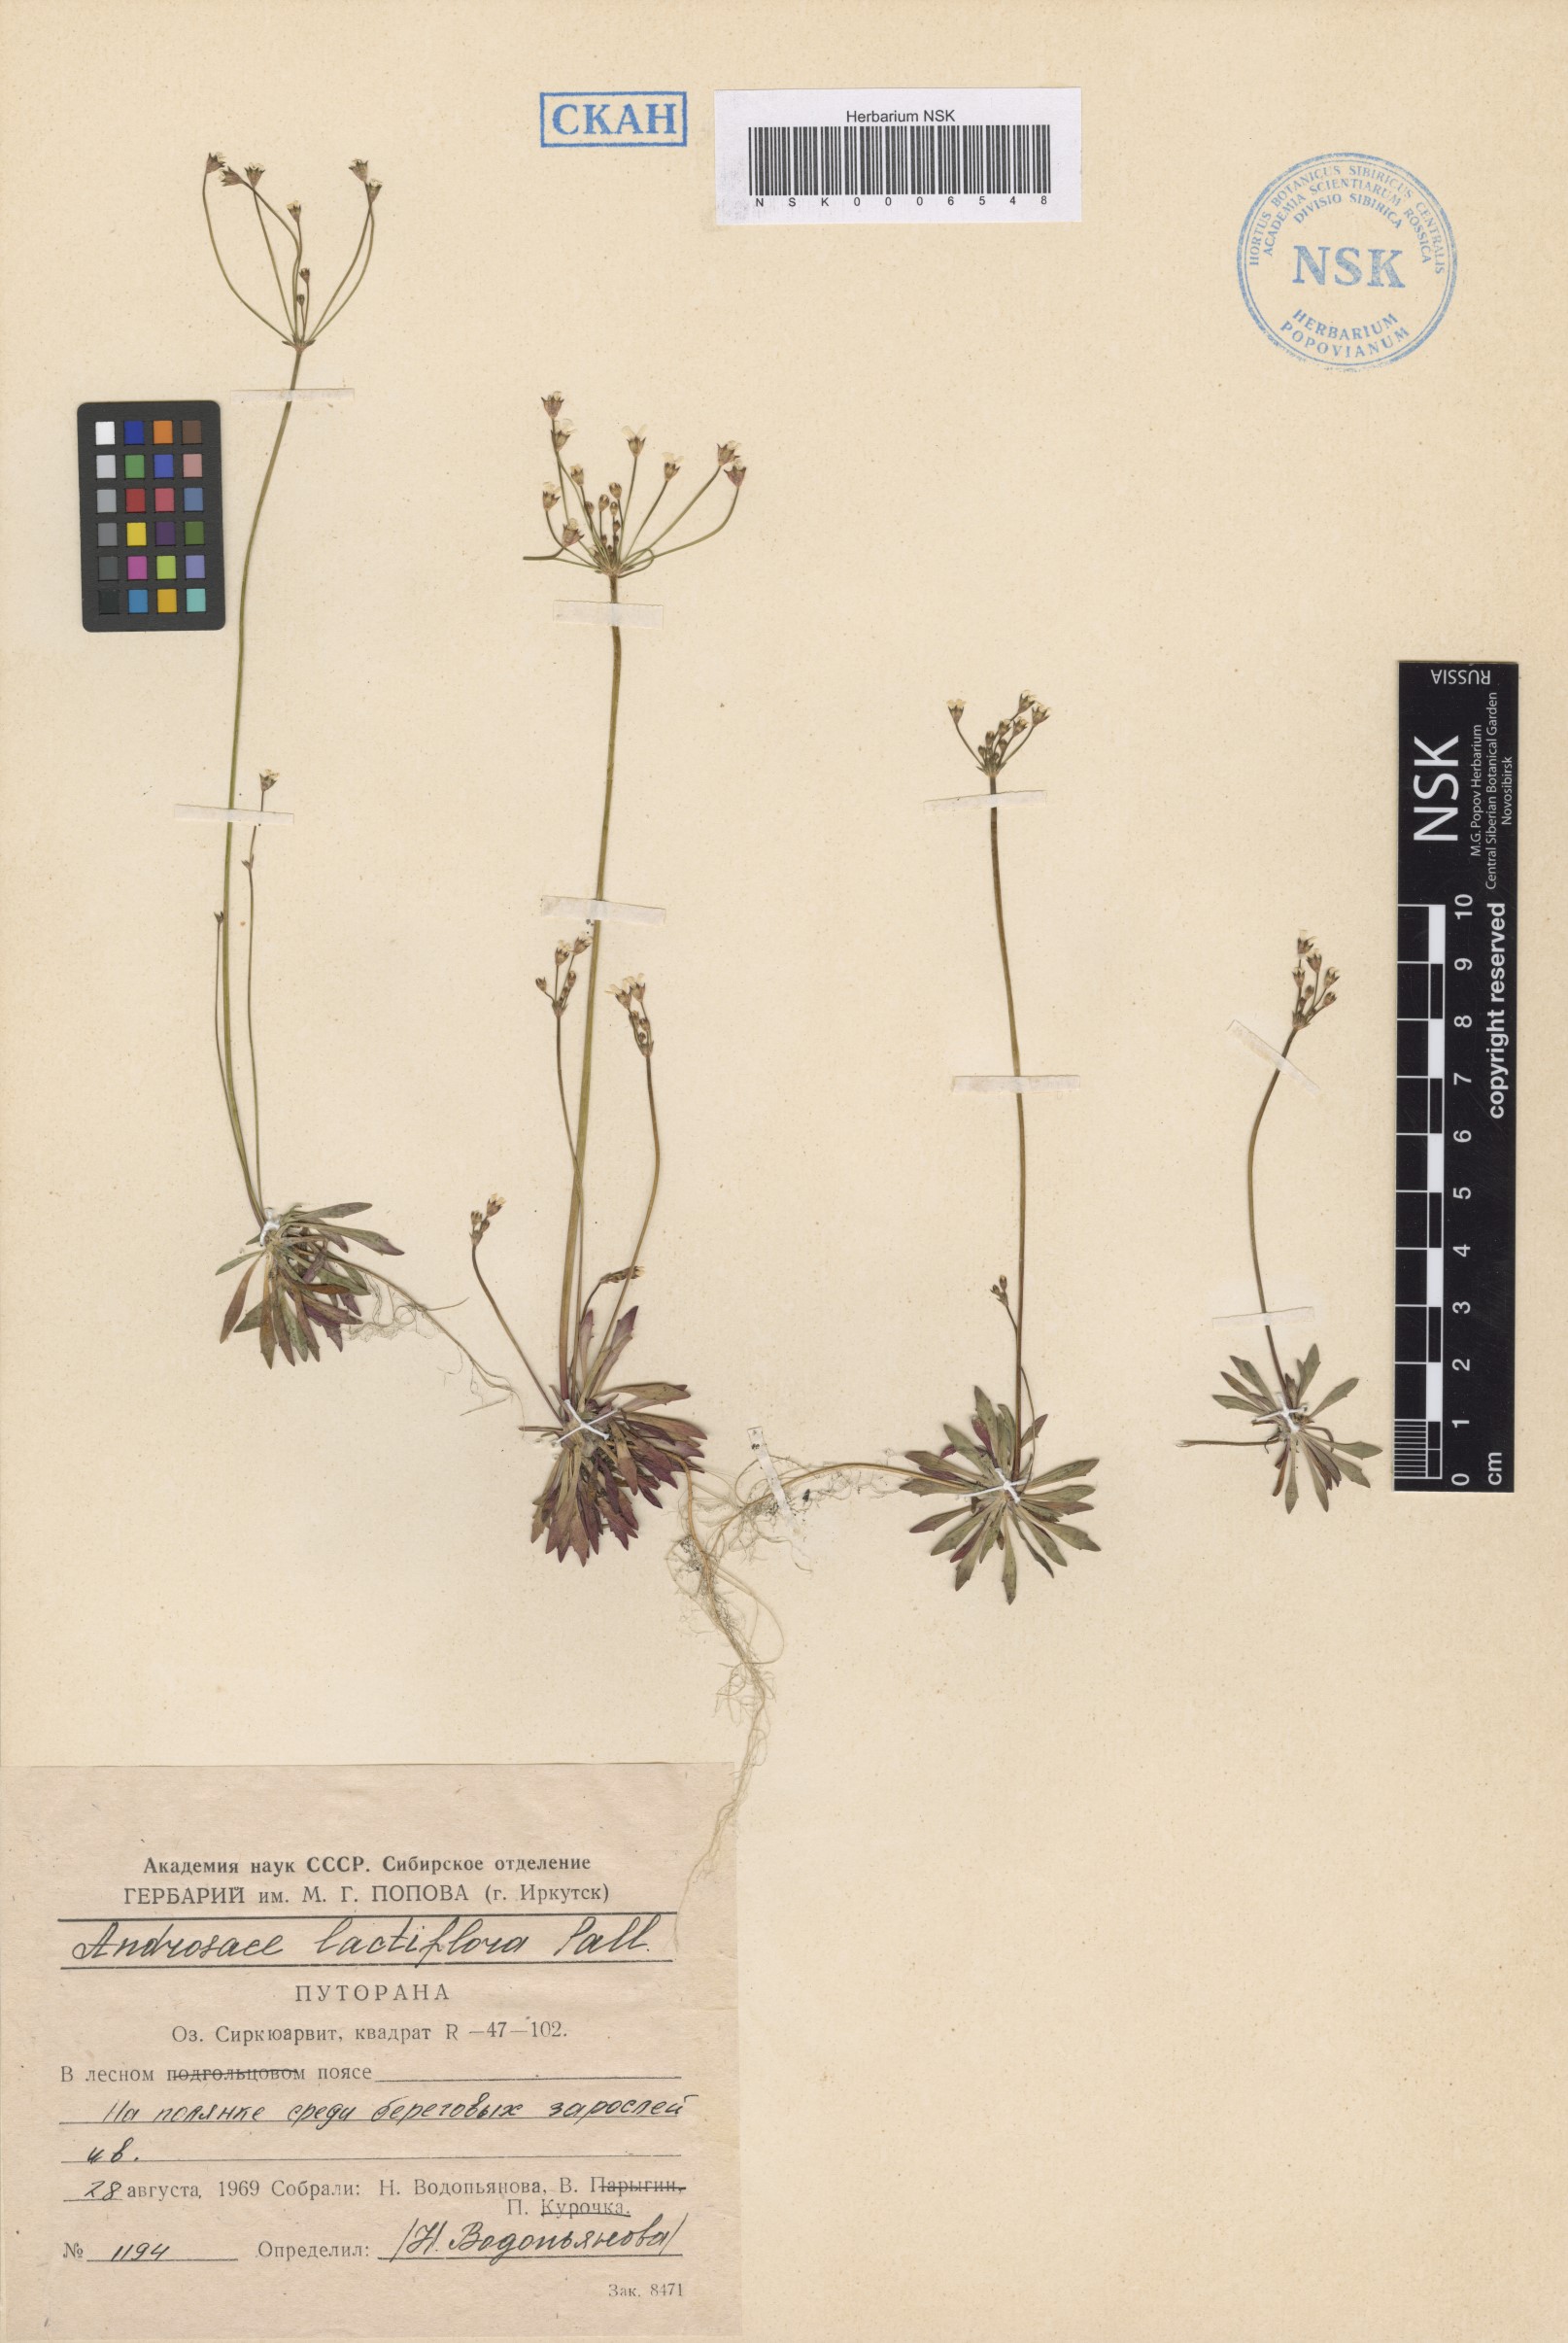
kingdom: Plantae
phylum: Tracheophyta
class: Magnoliopsida
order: Ericales
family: Primulaceae
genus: Androsace
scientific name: Androsace lactiflora
